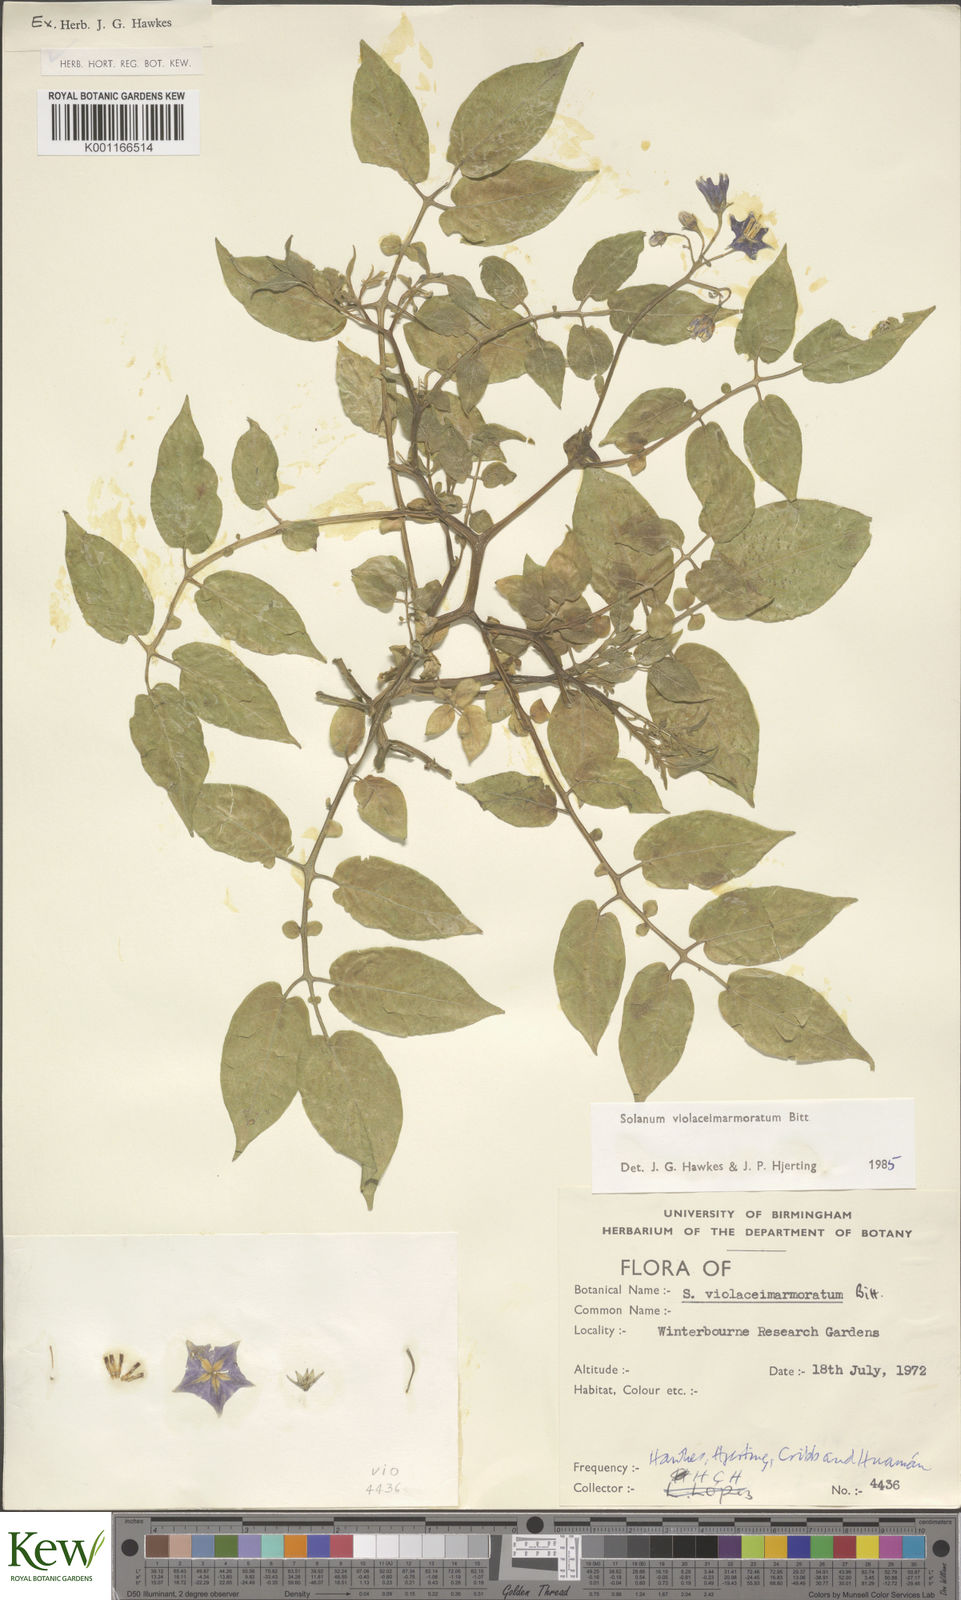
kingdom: Plantae
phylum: Tracheophyta
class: Magnoliopsida
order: Solanales
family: Solanaceae
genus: Solanum
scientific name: Solanum violaceimarmoratum
